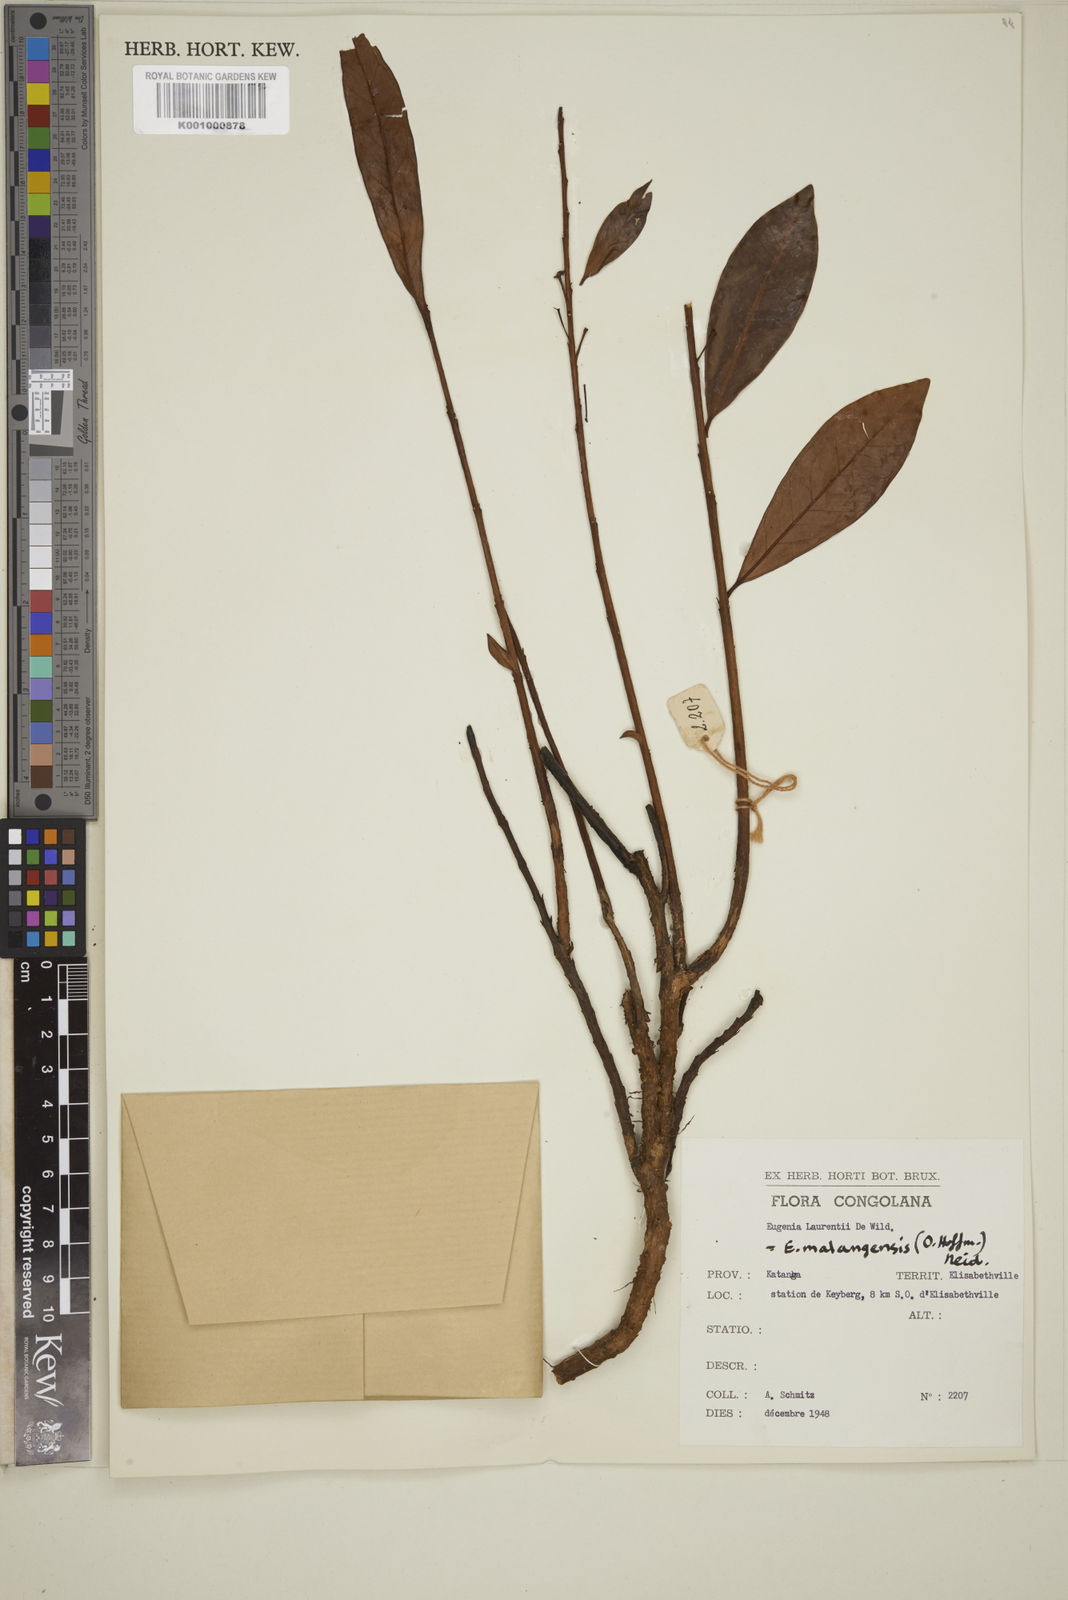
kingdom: Plantae
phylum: Tracheophyta
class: Magnoliopsida
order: Myrtales
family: Myrtaceae
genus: Eugenia
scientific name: Eugenia malangensis
